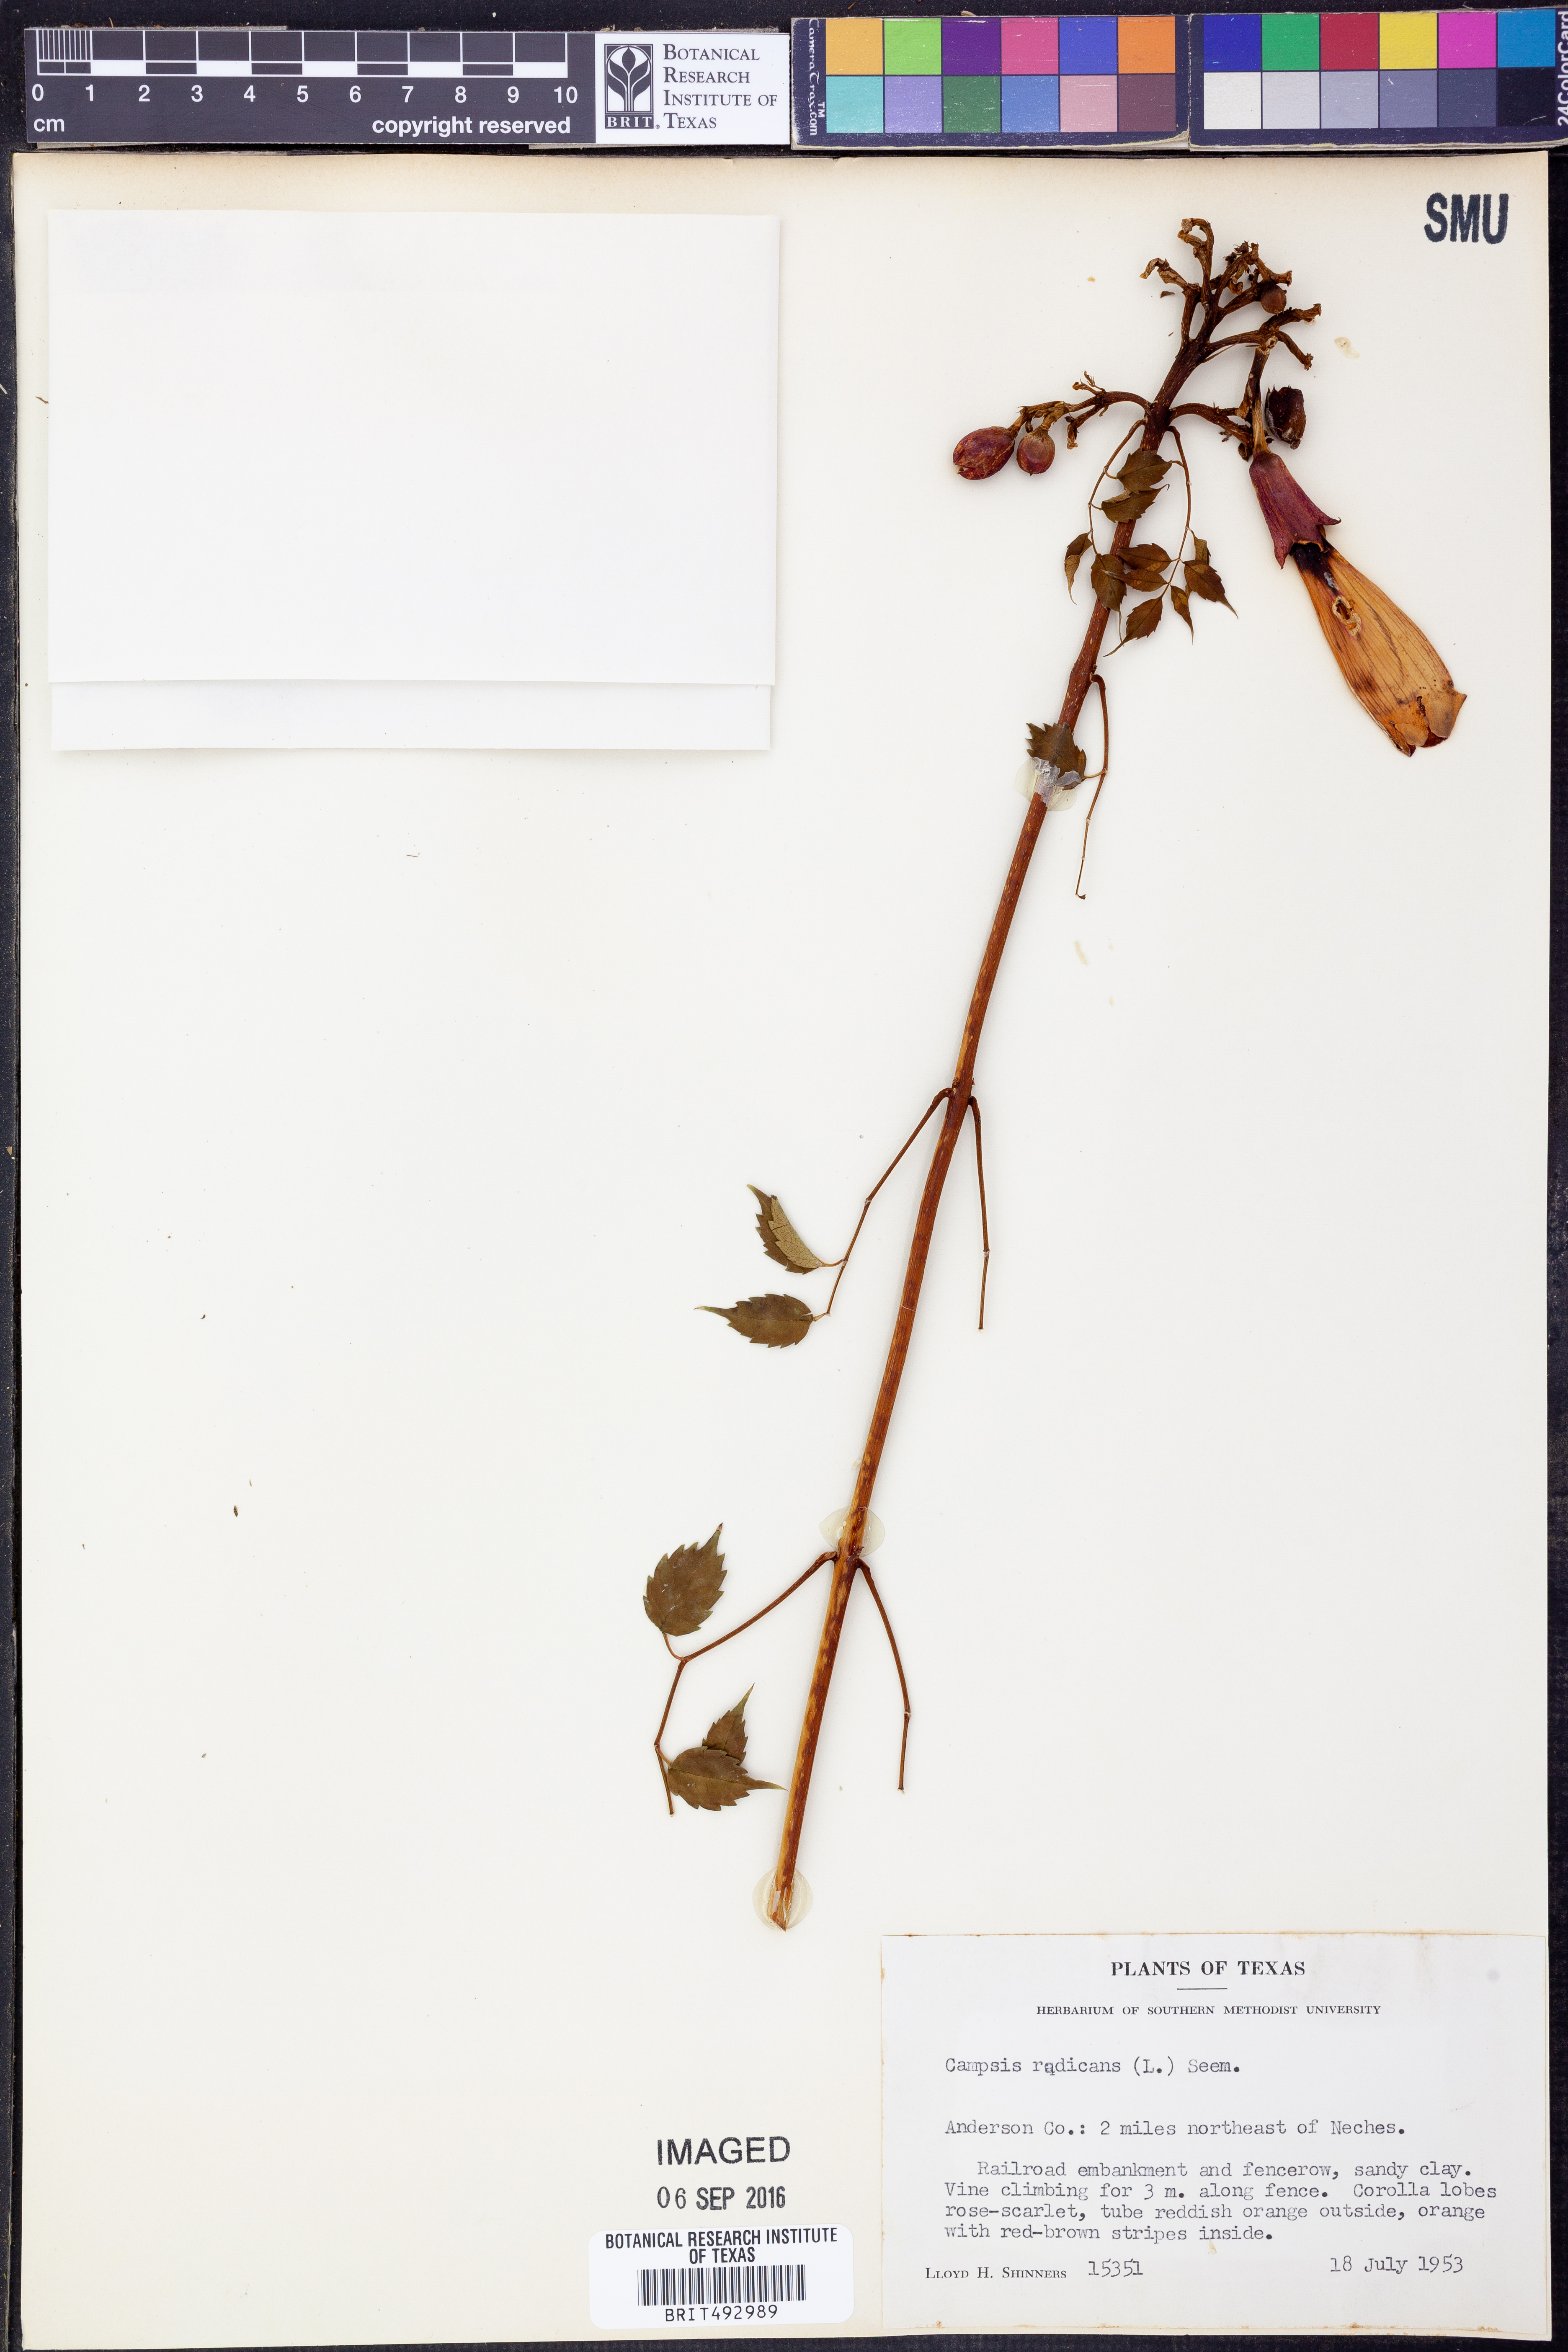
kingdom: Plantae
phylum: Tracheophyta
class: Magnoliopsida
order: Lamiales
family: Bignoniaceae
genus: Campsis
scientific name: Campsis radicans
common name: Trumpet-creeper
